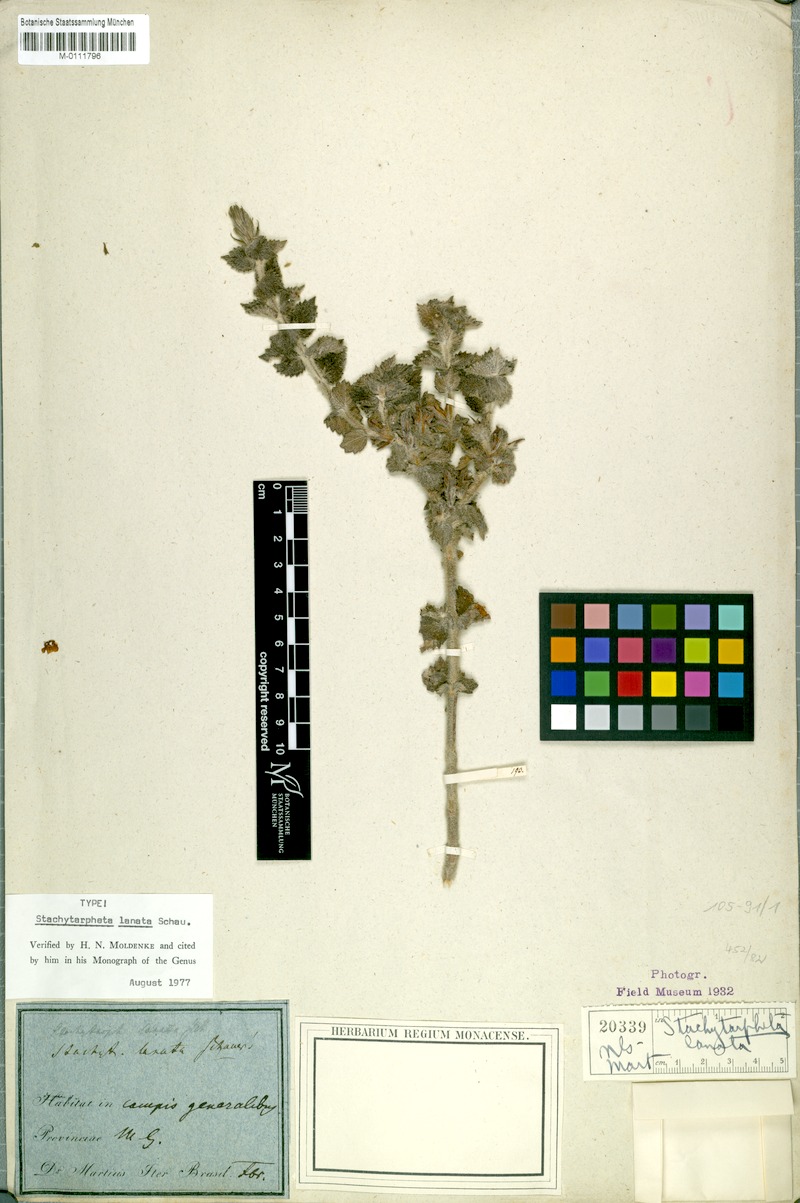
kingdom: Plantae
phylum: Tracheophyta
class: Magnoliopsida
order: Lamiales
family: Verbenaceae
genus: Stachytarpheta
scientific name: Stachytarpheta lanata
